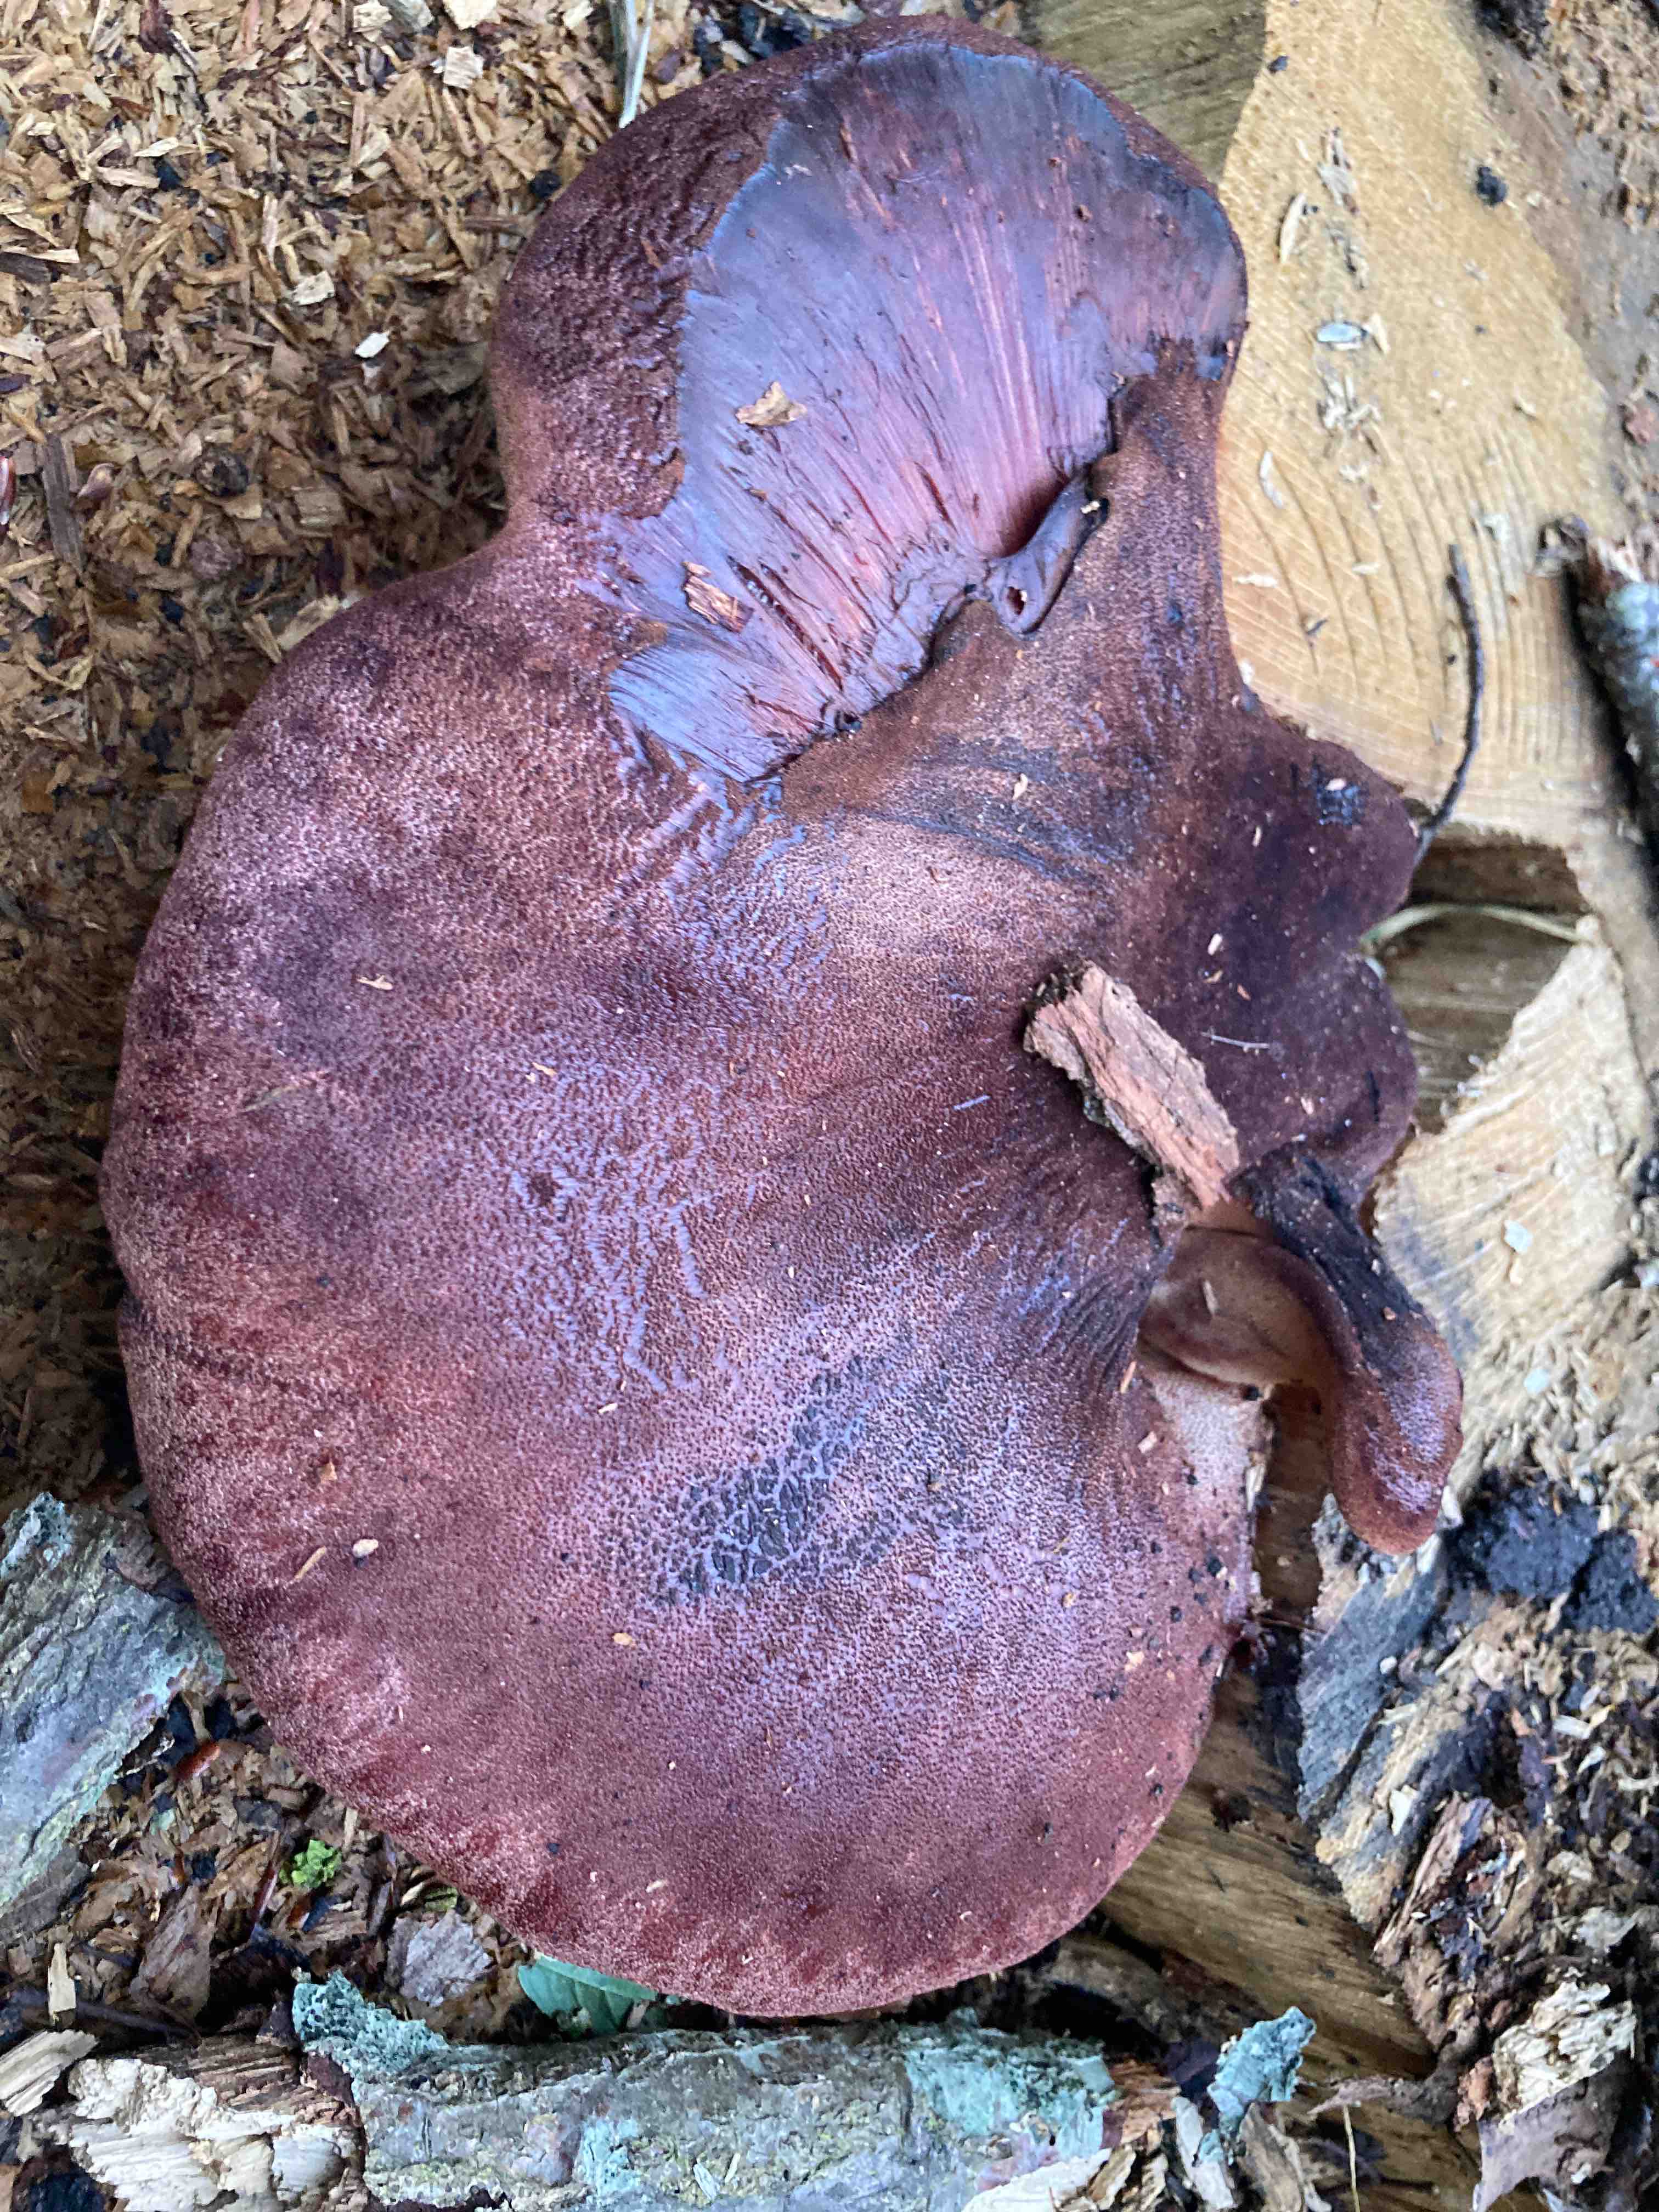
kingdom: Fungi
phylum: Basidiomycota
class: Agaricomycetes
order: Agaricales
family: Fistulinaceae
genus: Fistulina
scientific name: Fistulina hepatica
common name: oksetunge
